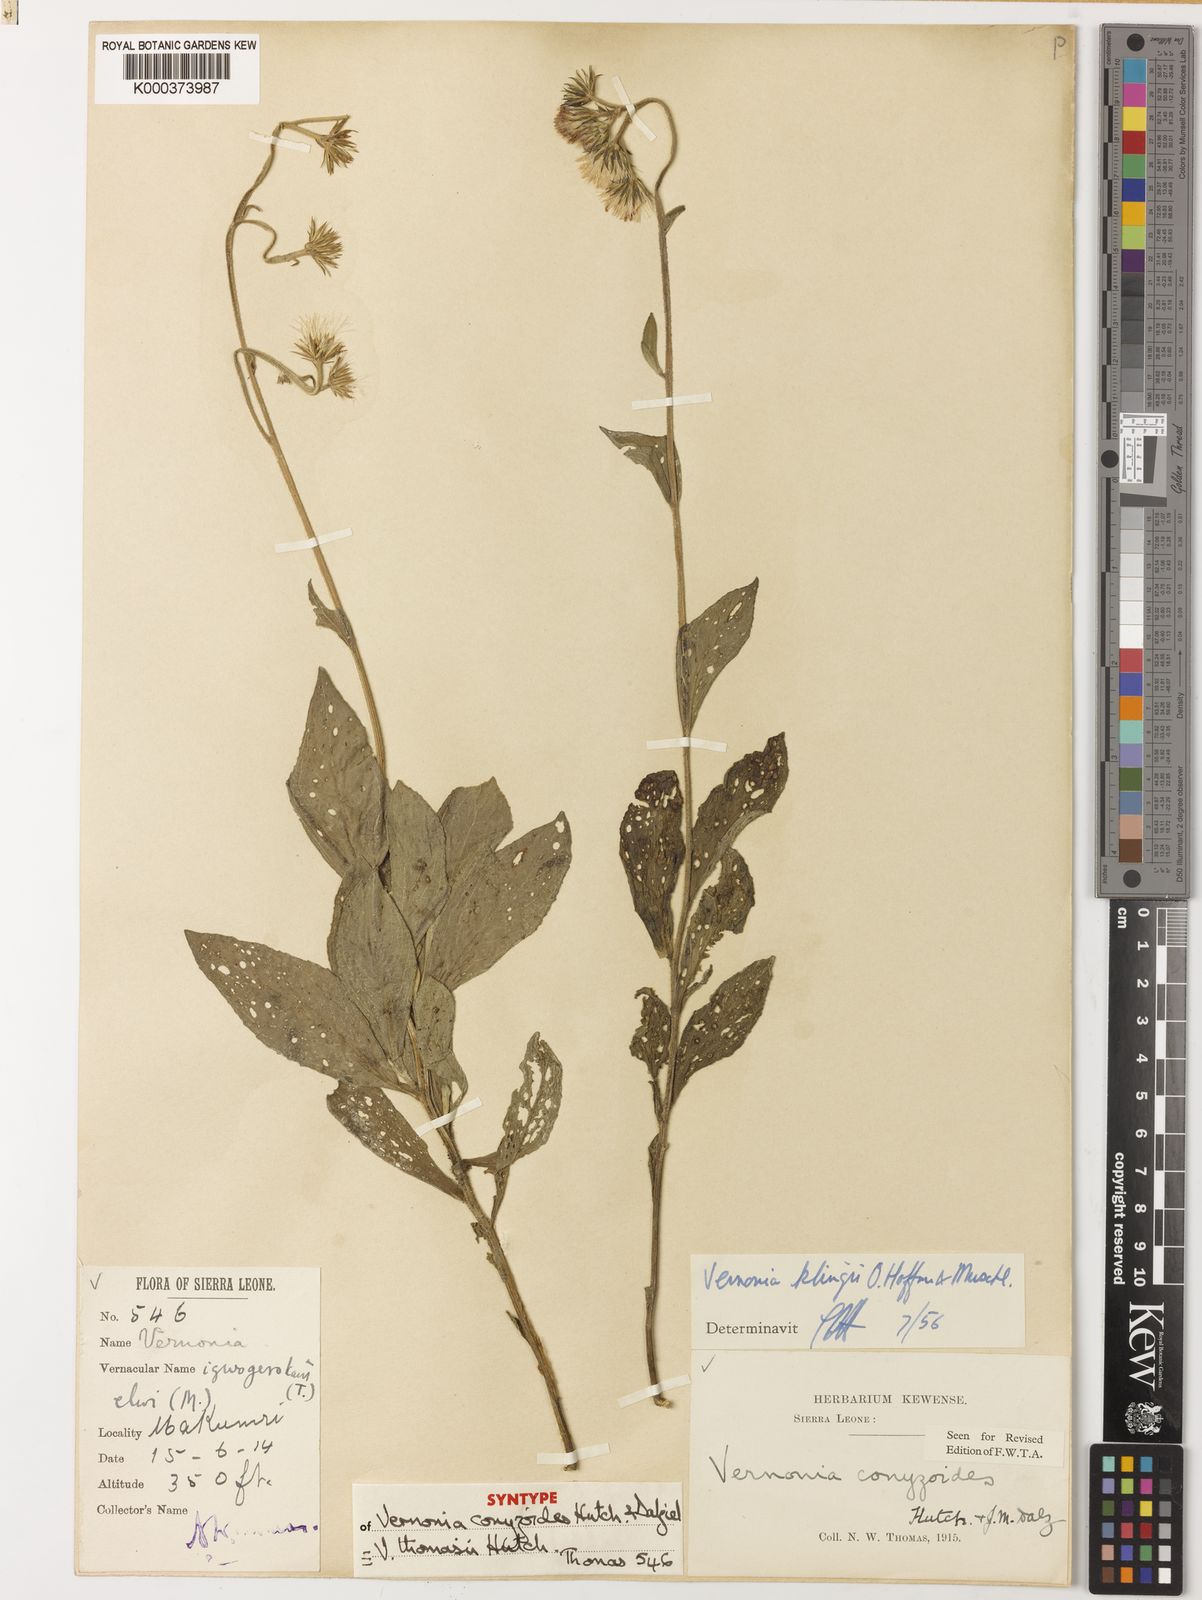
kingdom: Plantae
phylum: Tracheophyta
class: Magnoliopsida
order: Asterales
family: Asteraceae
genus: Vernoniastrum
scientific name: Vernoniastrum klingii
